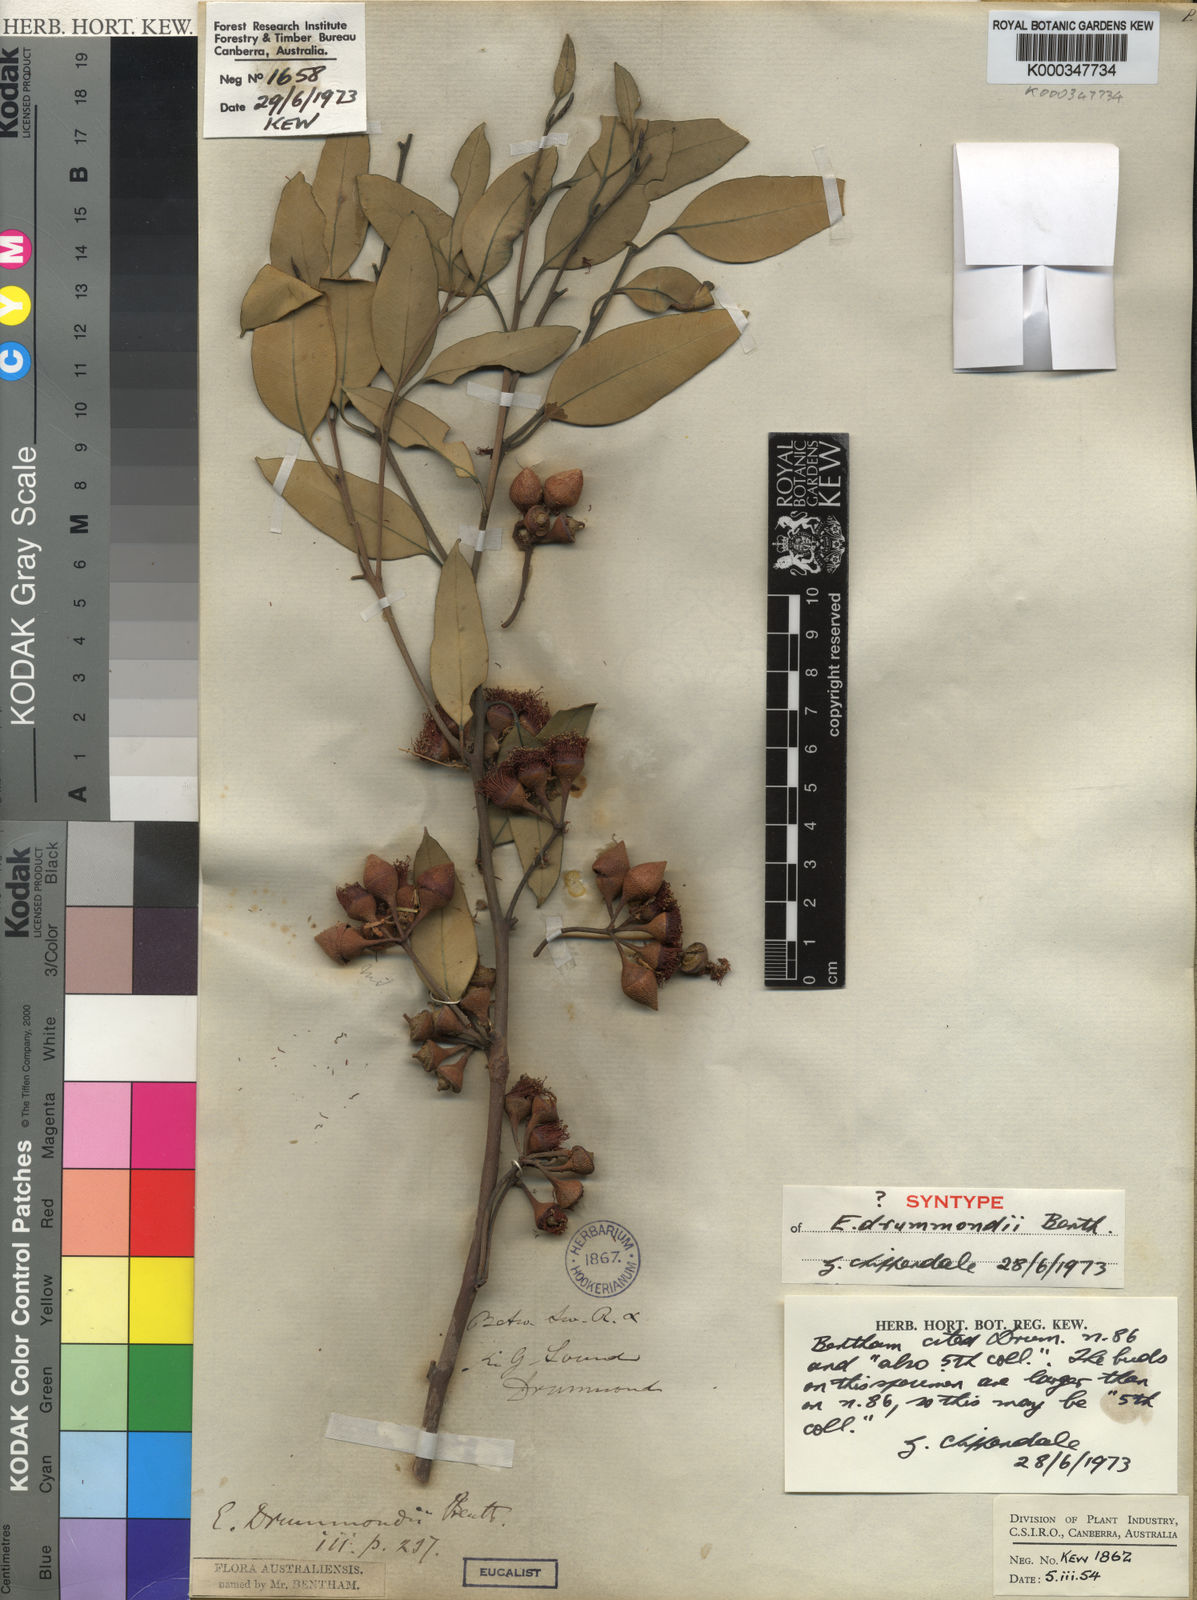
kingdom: Plantae
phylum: Tracheophyta
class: Magnoliopsida
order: Myrtales
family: Myrtaceae
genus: Eucalyptus
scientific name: Eucalyptus drummondii
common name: Drummond's mallee
